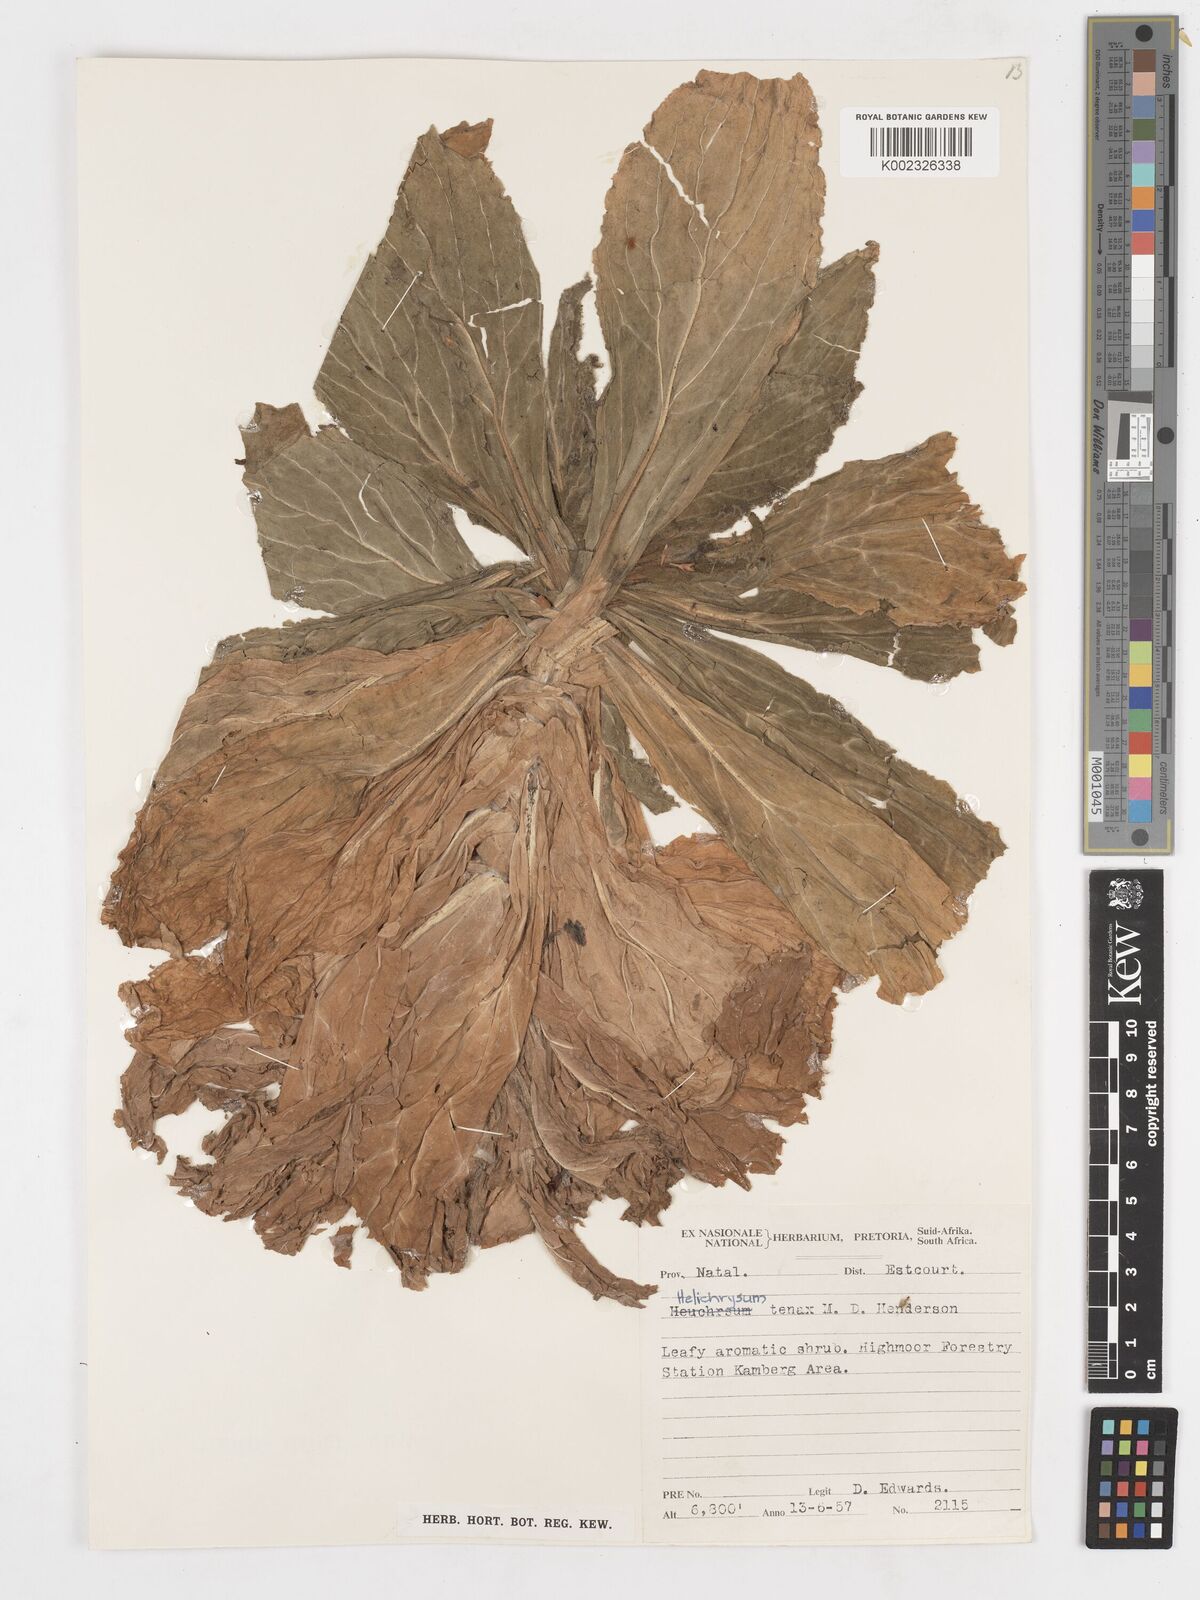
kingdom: Plantae
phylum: Tracheophyta
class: Magnoliopsida
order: Asterales
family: Asteraceae
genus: Helichrysum
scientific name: Helichrysum tenax
